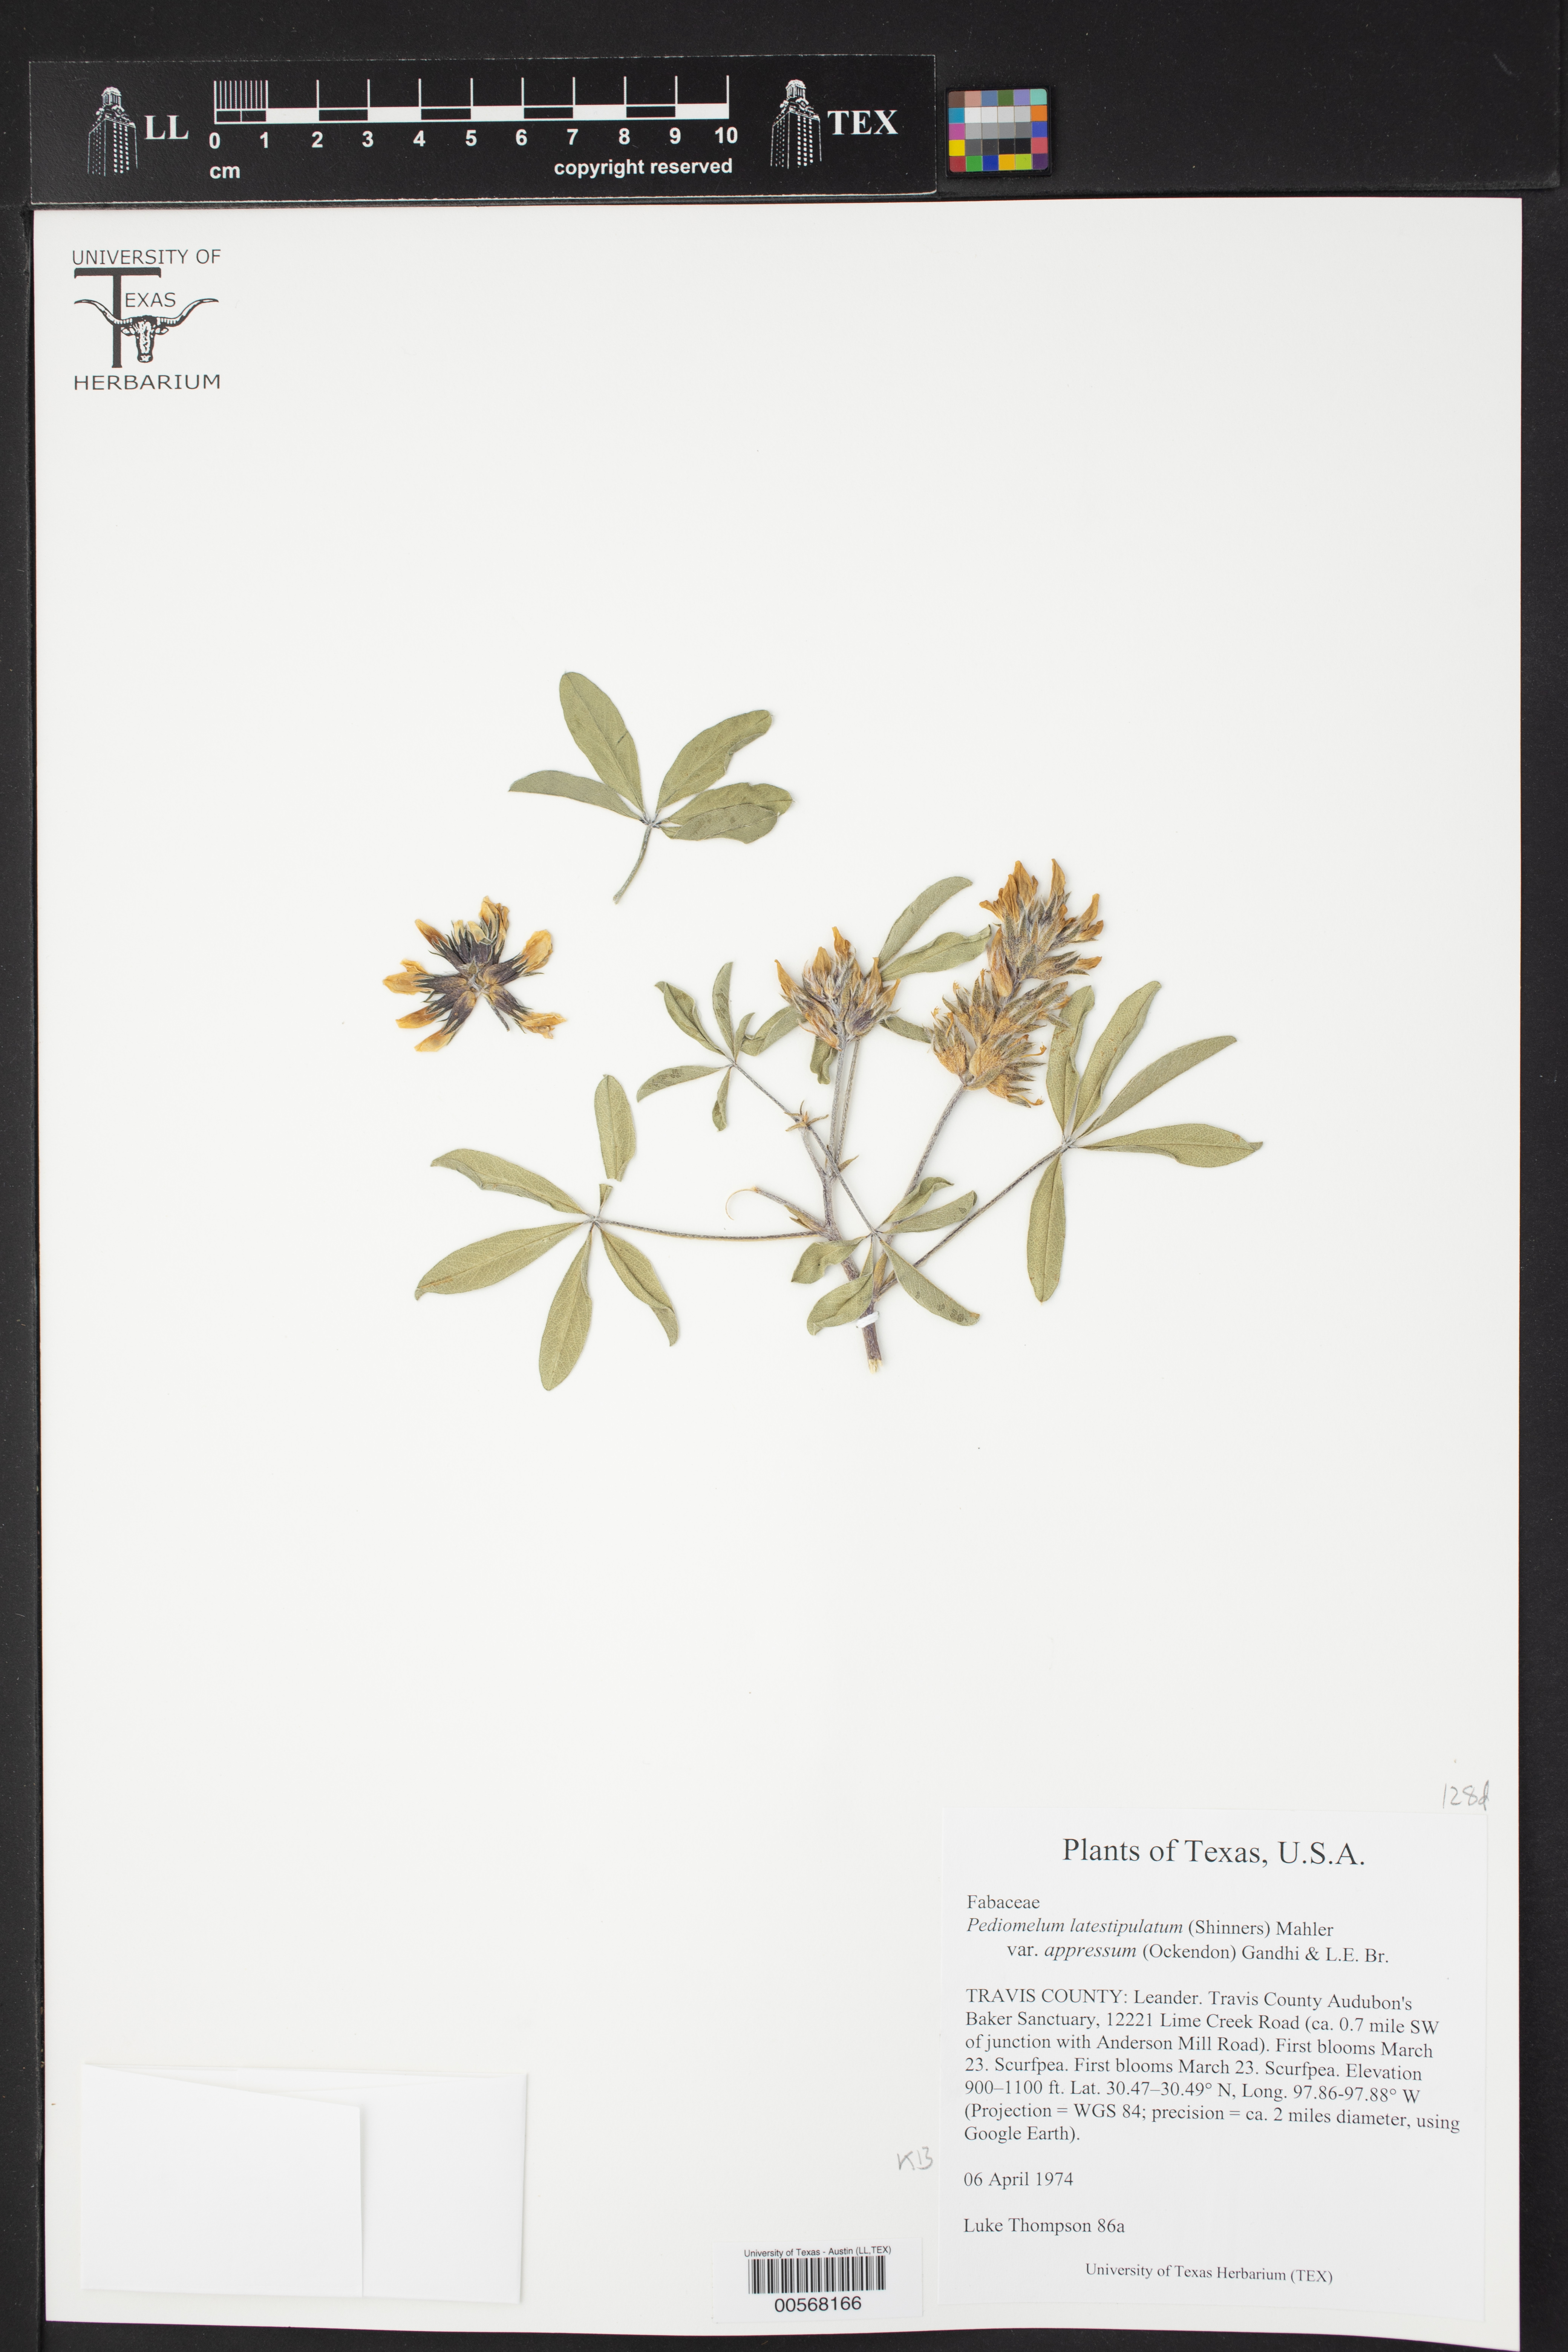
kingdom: Plantae
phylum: Tracheophyta
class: Magnoliopsida
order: Fabales
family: Fabaceae
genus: Pediomelum
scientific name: Pediomelum latestipulatum
